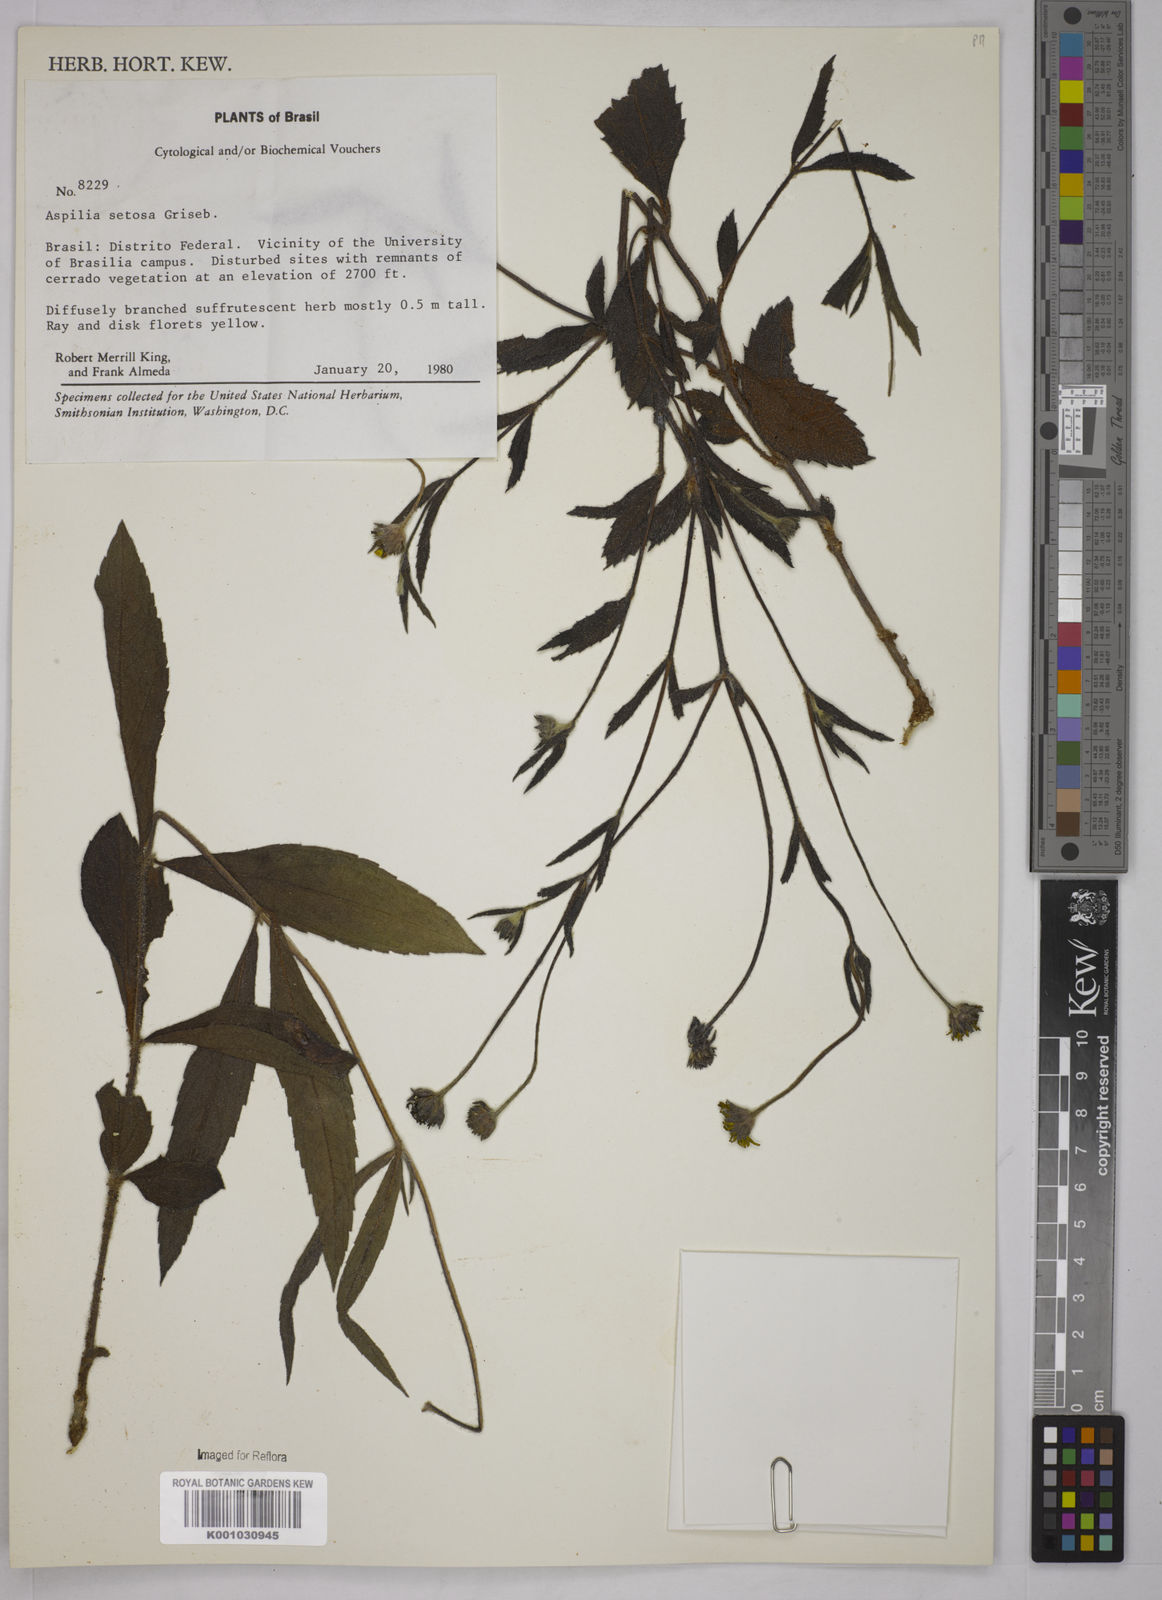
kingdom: Plantae
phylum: Tracheophyta
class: Magnoliopsida
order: Asterales
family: Asteraceae
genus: Aspilia
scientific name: Aspilia
